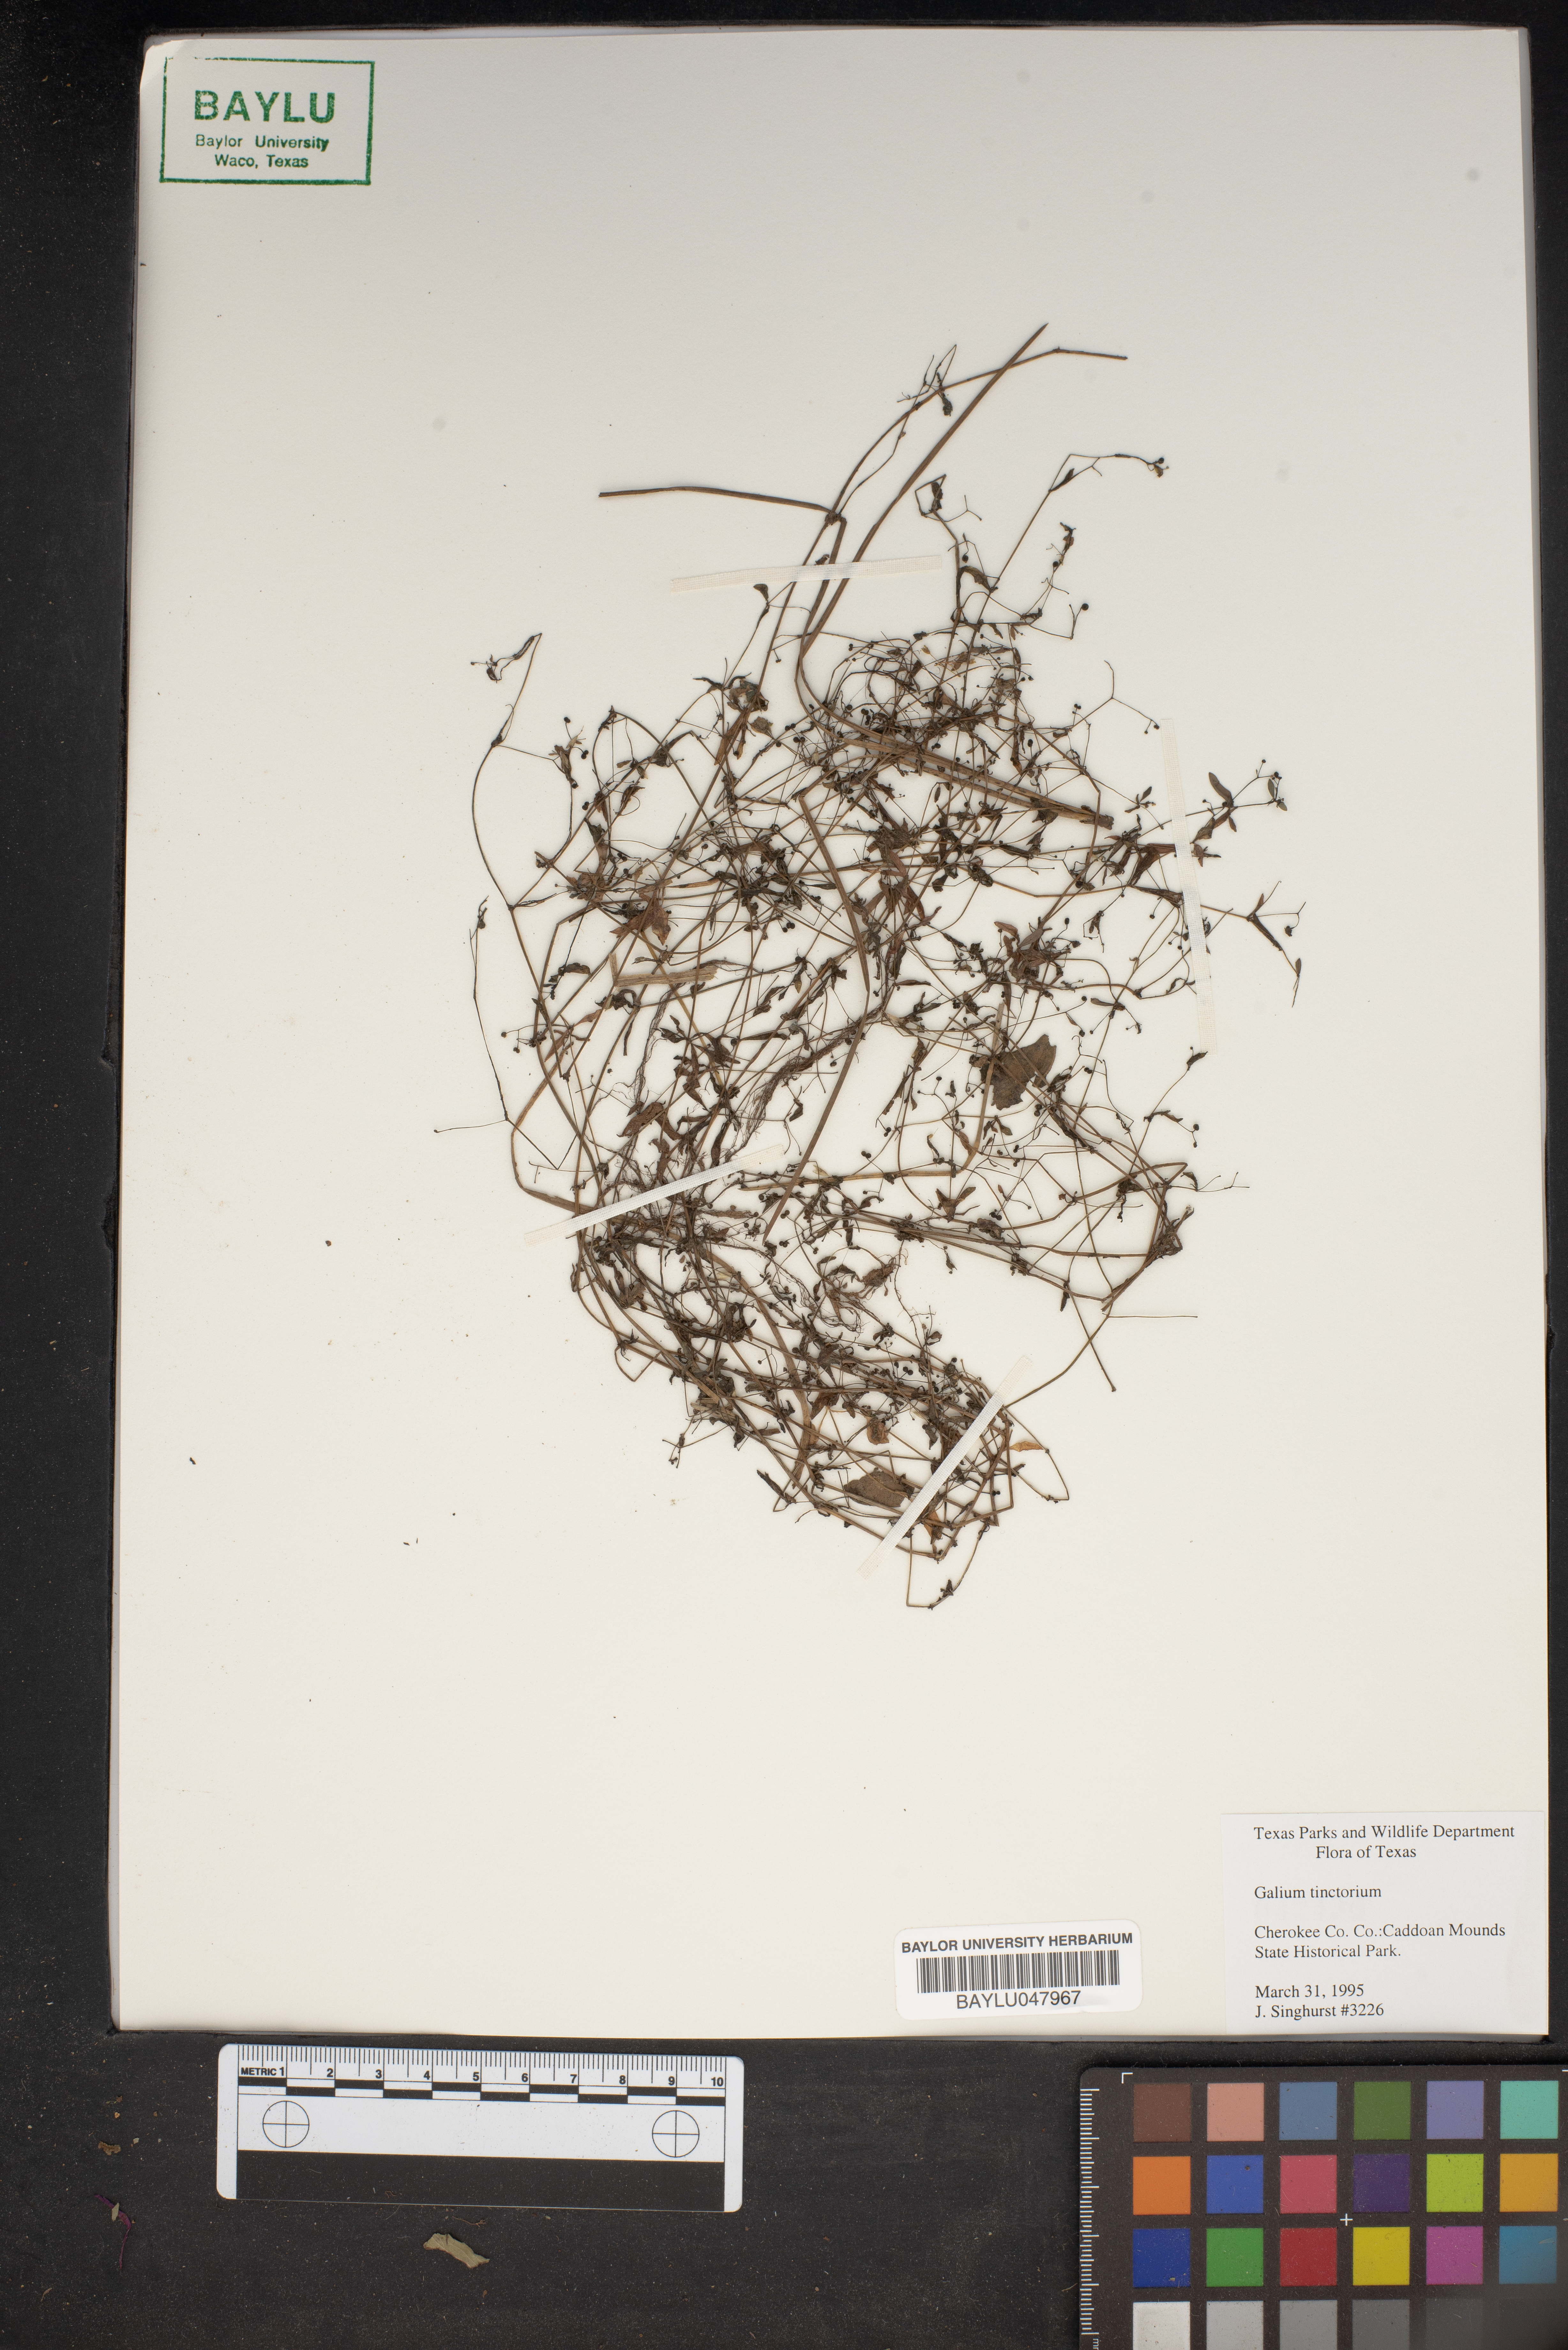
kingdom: Plantae
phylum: Tracheophyta
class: Magnoliopsida
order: Gentianales
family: Rubiaceae
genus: Asperula
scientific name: Asperula tinctoria
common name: Dyer's woodruff
